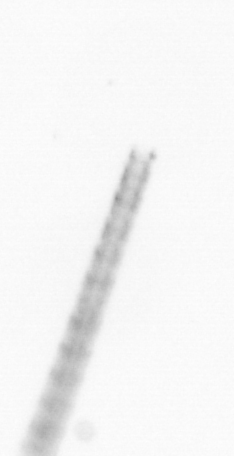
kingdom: Chromista
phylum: Ochrophyta
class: Bacillariophyceae
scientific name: Bacillariophyceae
